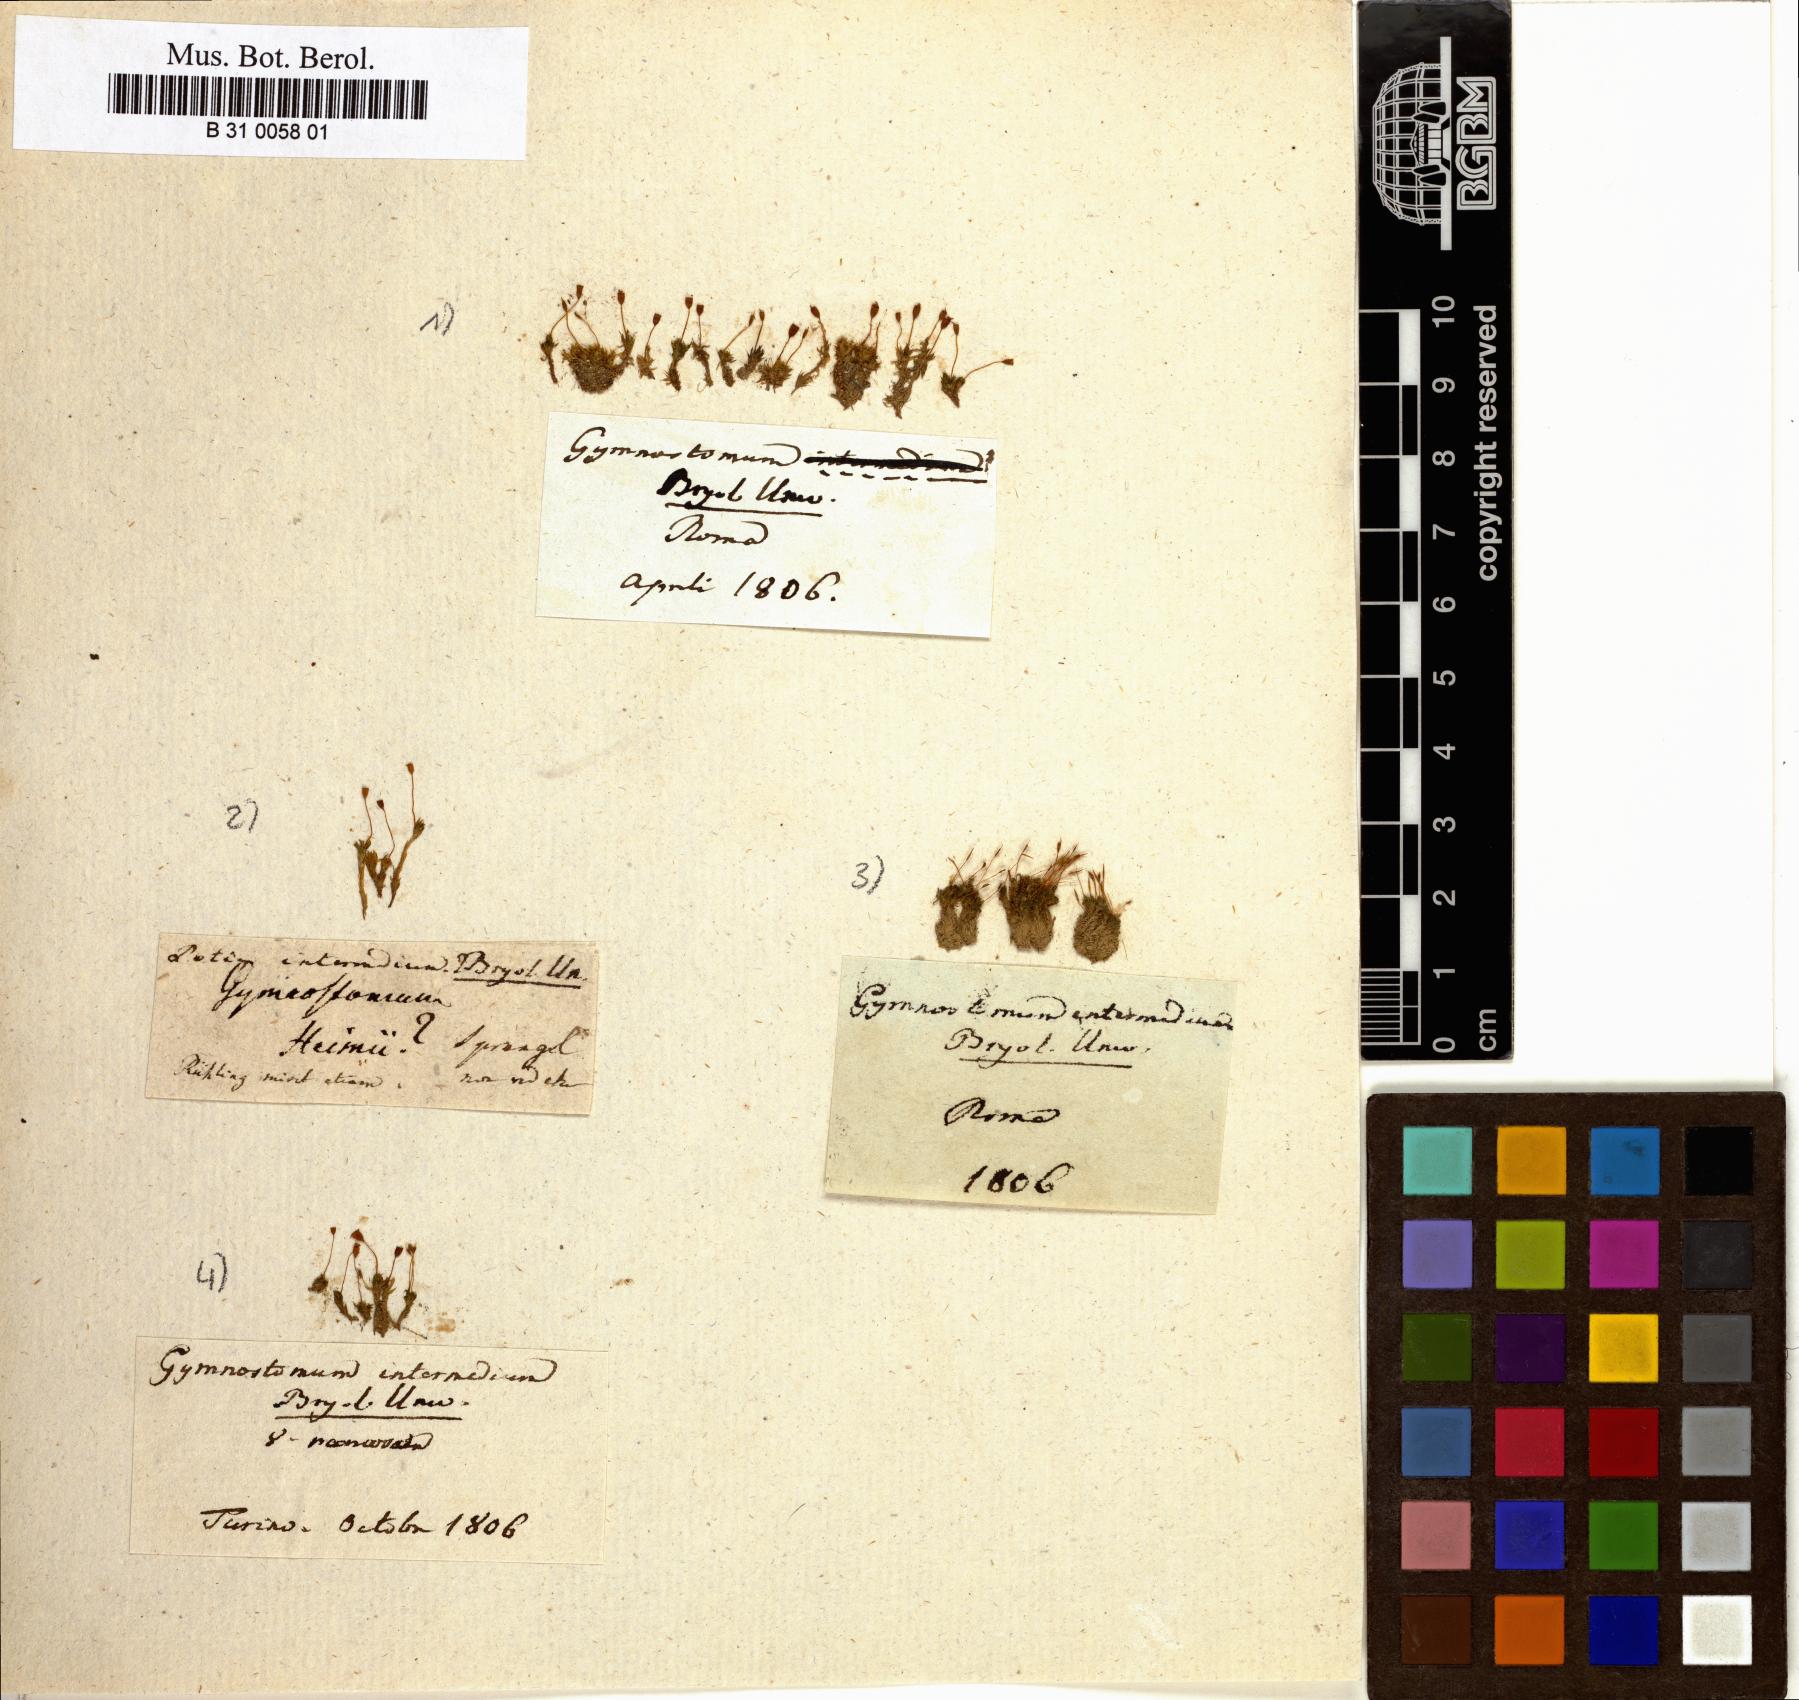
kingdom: Plantae
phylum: Bryophyta
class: Bryopsida
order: Pottiales
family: Pottiaceae
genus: Tortula
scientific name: Tortula caucasica
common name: Blunt-fruited pottia
